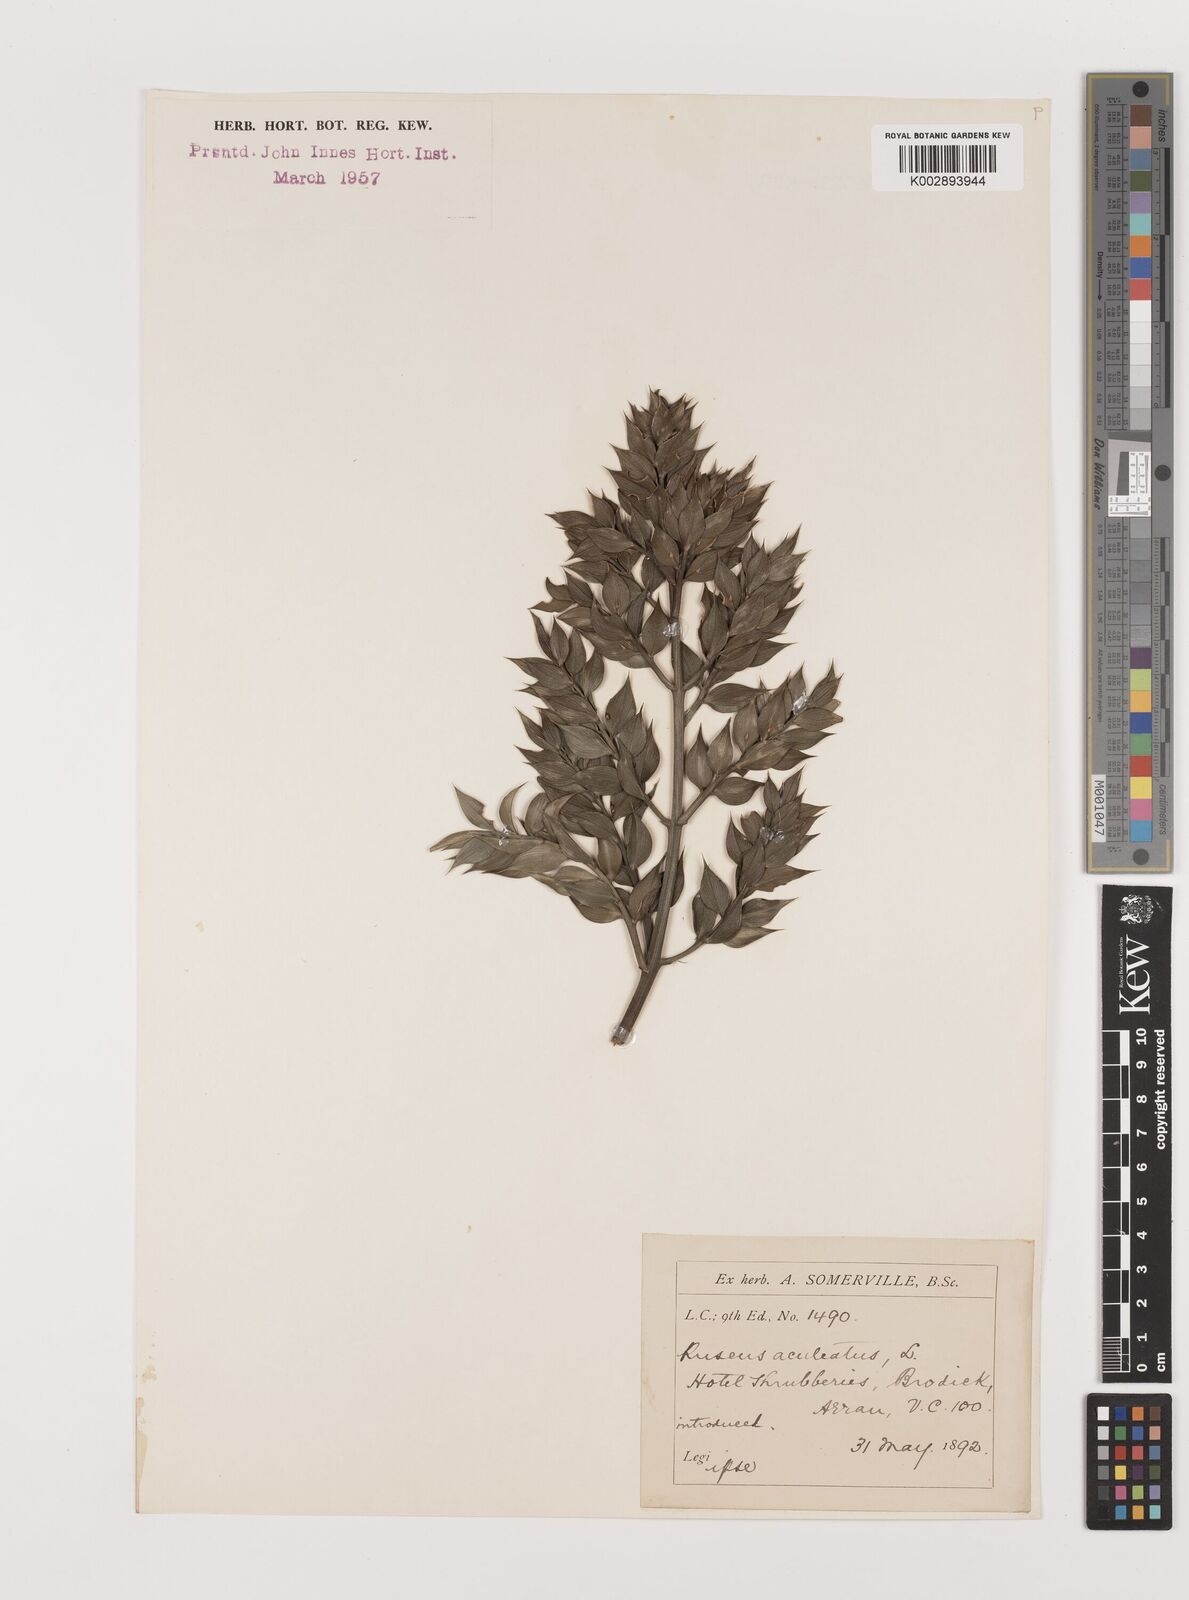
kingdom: Plantae
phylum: Tracheophyta
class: Liliopsida
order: Asparagales
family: Asparagaceae
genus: Ruscus
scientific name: Ruscus aculeatus
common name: Butcher's-broom
